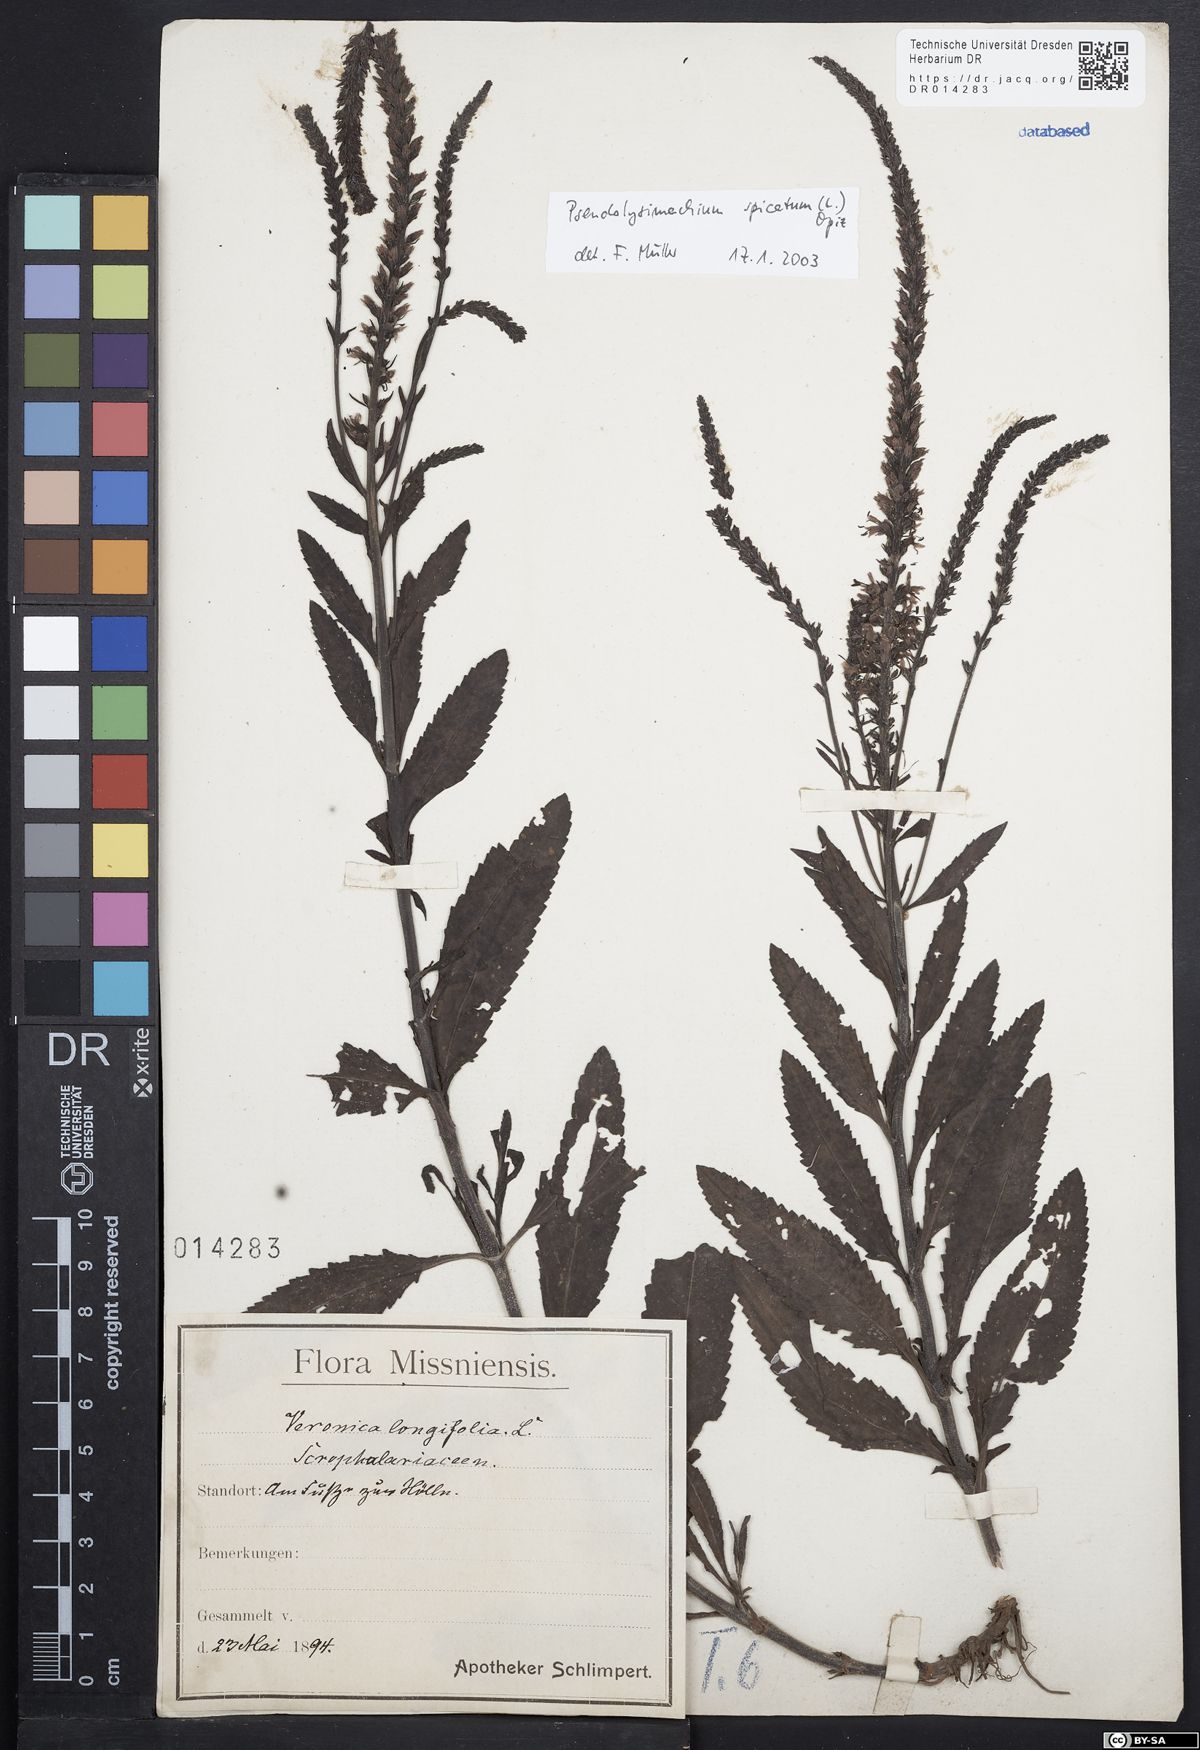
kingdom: Plantae
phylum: Tracheophyta
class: Magnoliopsida
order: Lamiales
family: Plantaginaceae
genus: Veronica
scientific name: Veronica spicata
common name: Spiked speedwell
